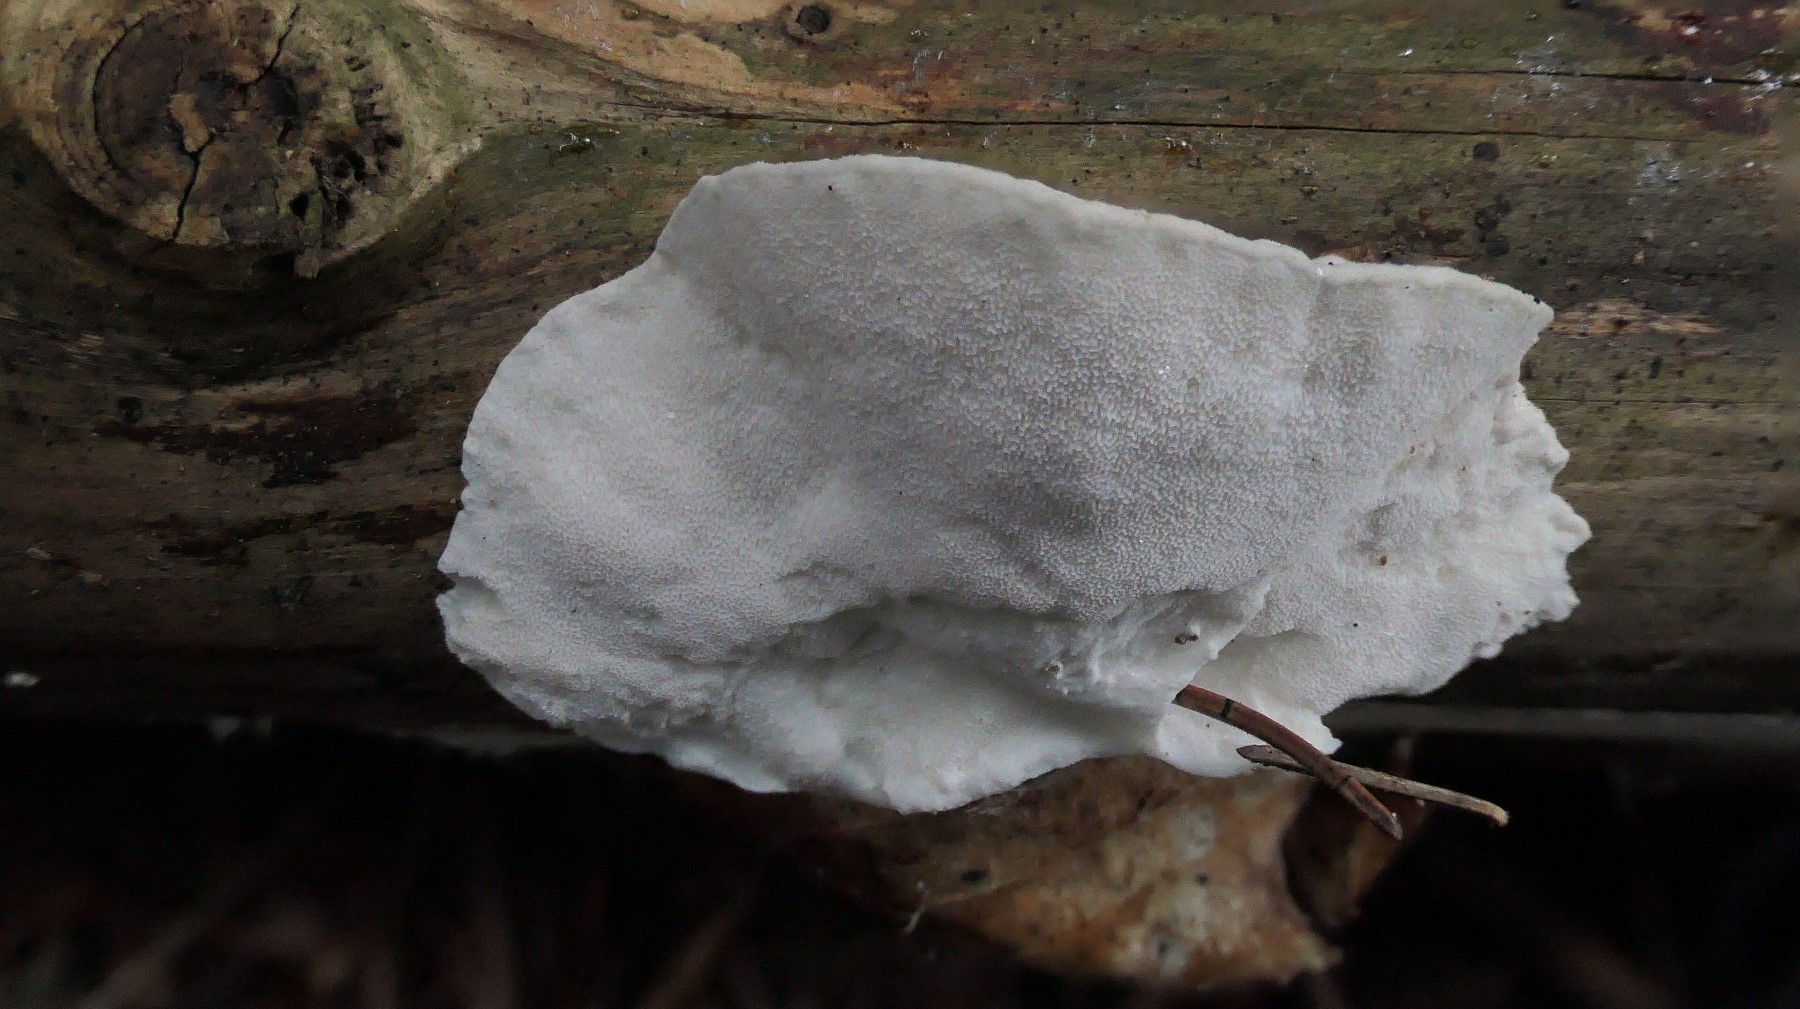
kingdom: Fungi
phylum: Basidiomycota
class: Agaricomycetes
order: Polyporales
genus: Amaropostia
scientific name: Amaropostia stiptica
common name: bitter kødporesvamp
